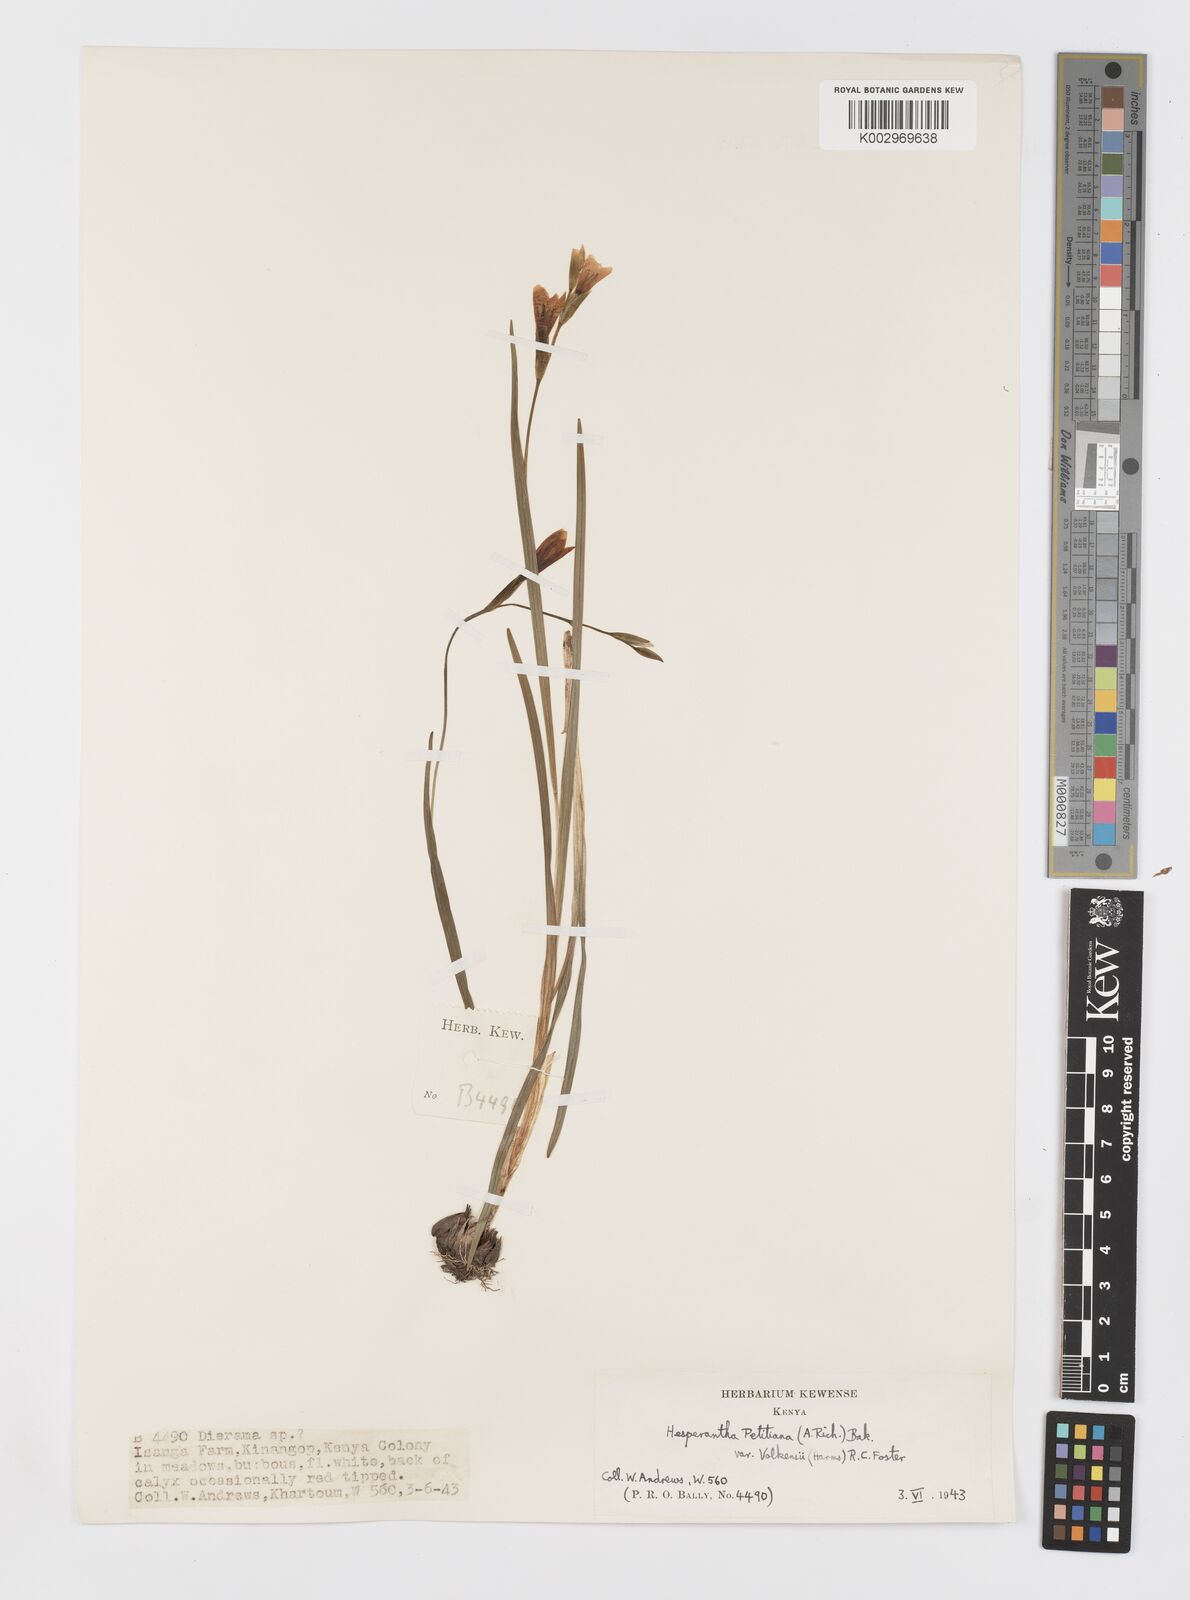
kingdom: Plantae
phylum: Tracheophyta
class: Liliopsida
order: Asparagales
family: Iridaceae
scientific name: Iridaceae
